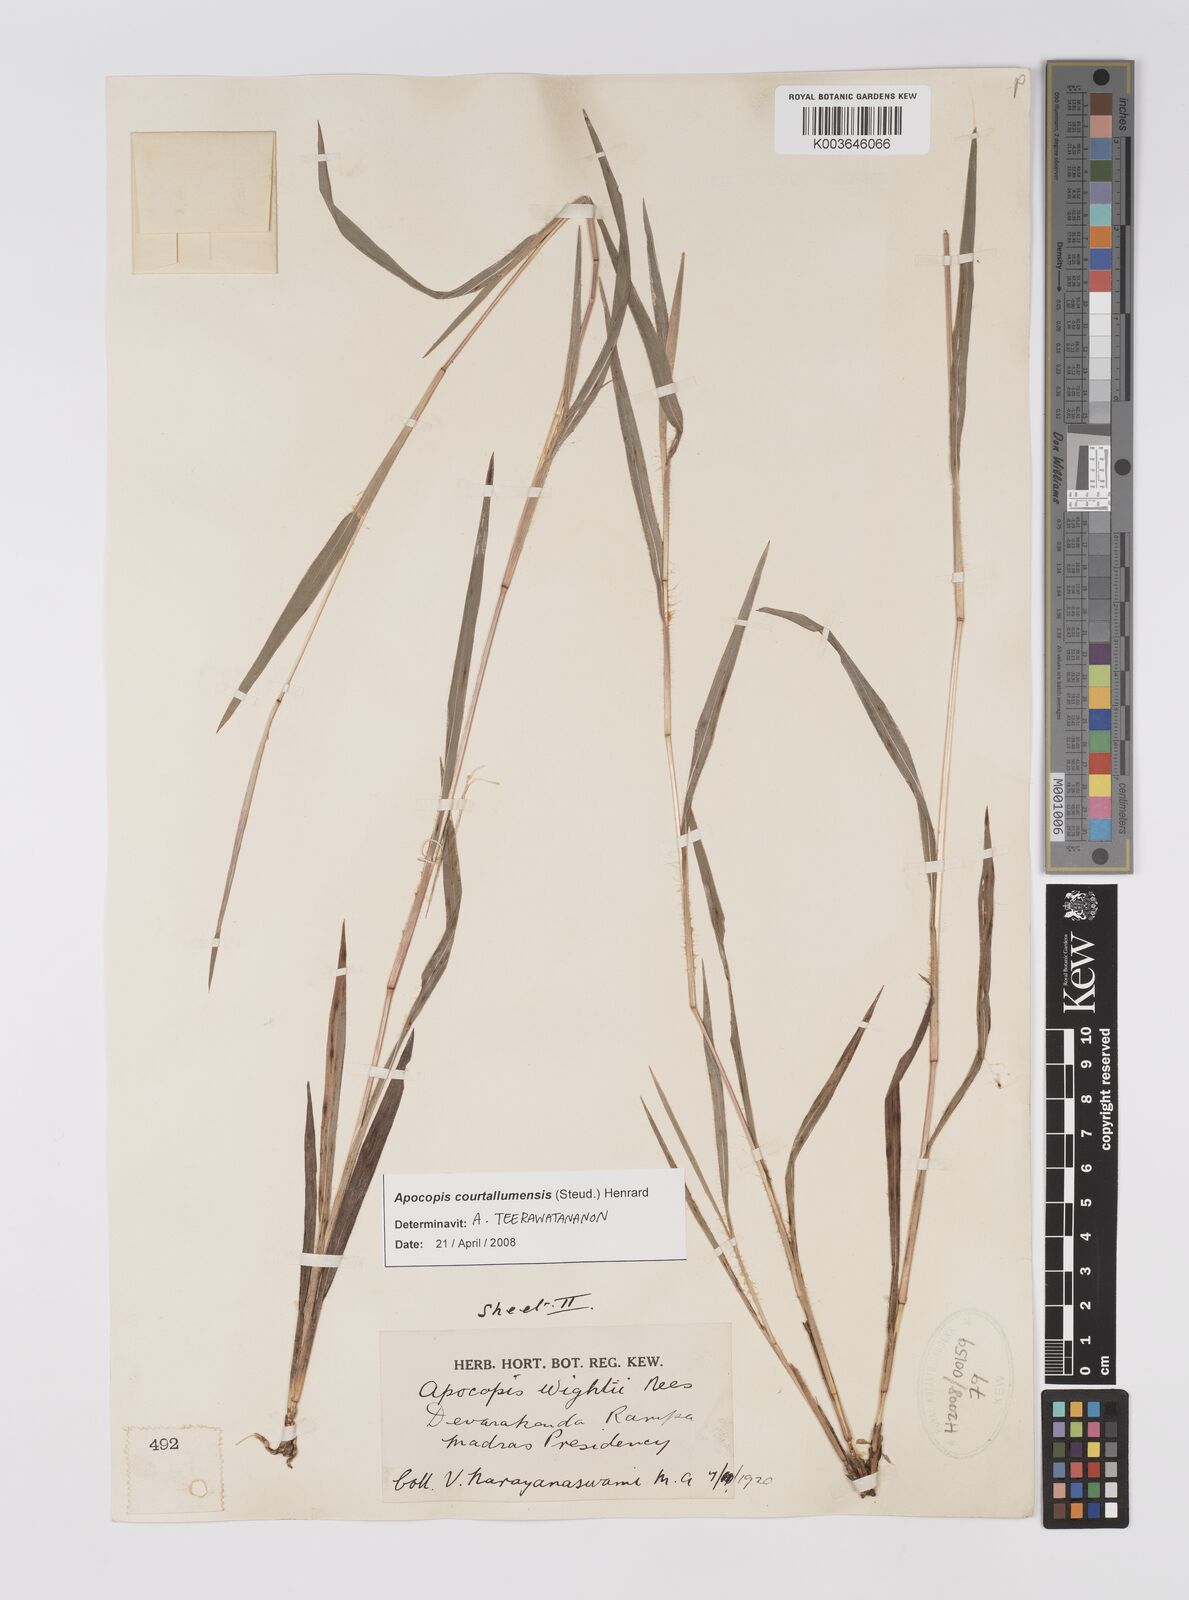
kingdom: Plantae
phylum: Tracheophyta
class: Liliopsida
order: Poales
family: Poaceae
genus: Apocopis
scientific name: Apocopis courtallumensis
